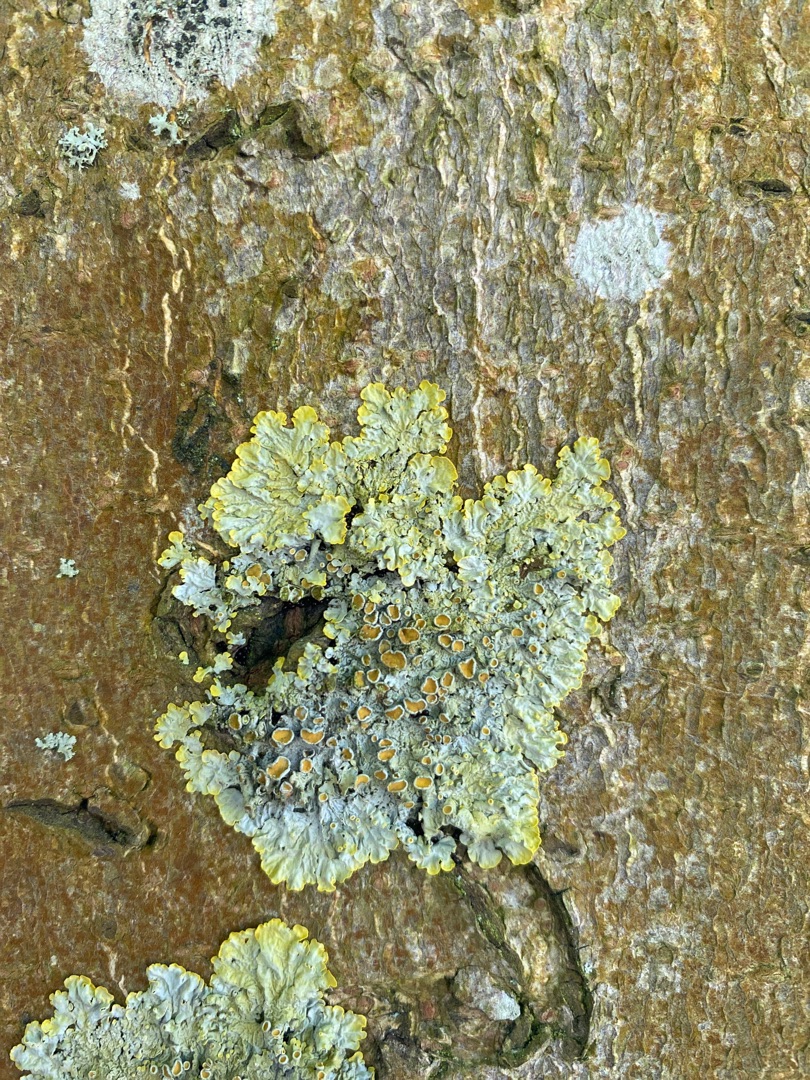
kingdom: Fungi
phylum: Ascomycota
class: Lecanoromycetes
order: Teloschistales
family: Teloschistaceae
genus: Xanthoria
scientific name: Xanthoria parietina
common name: Almindelig væggelav
